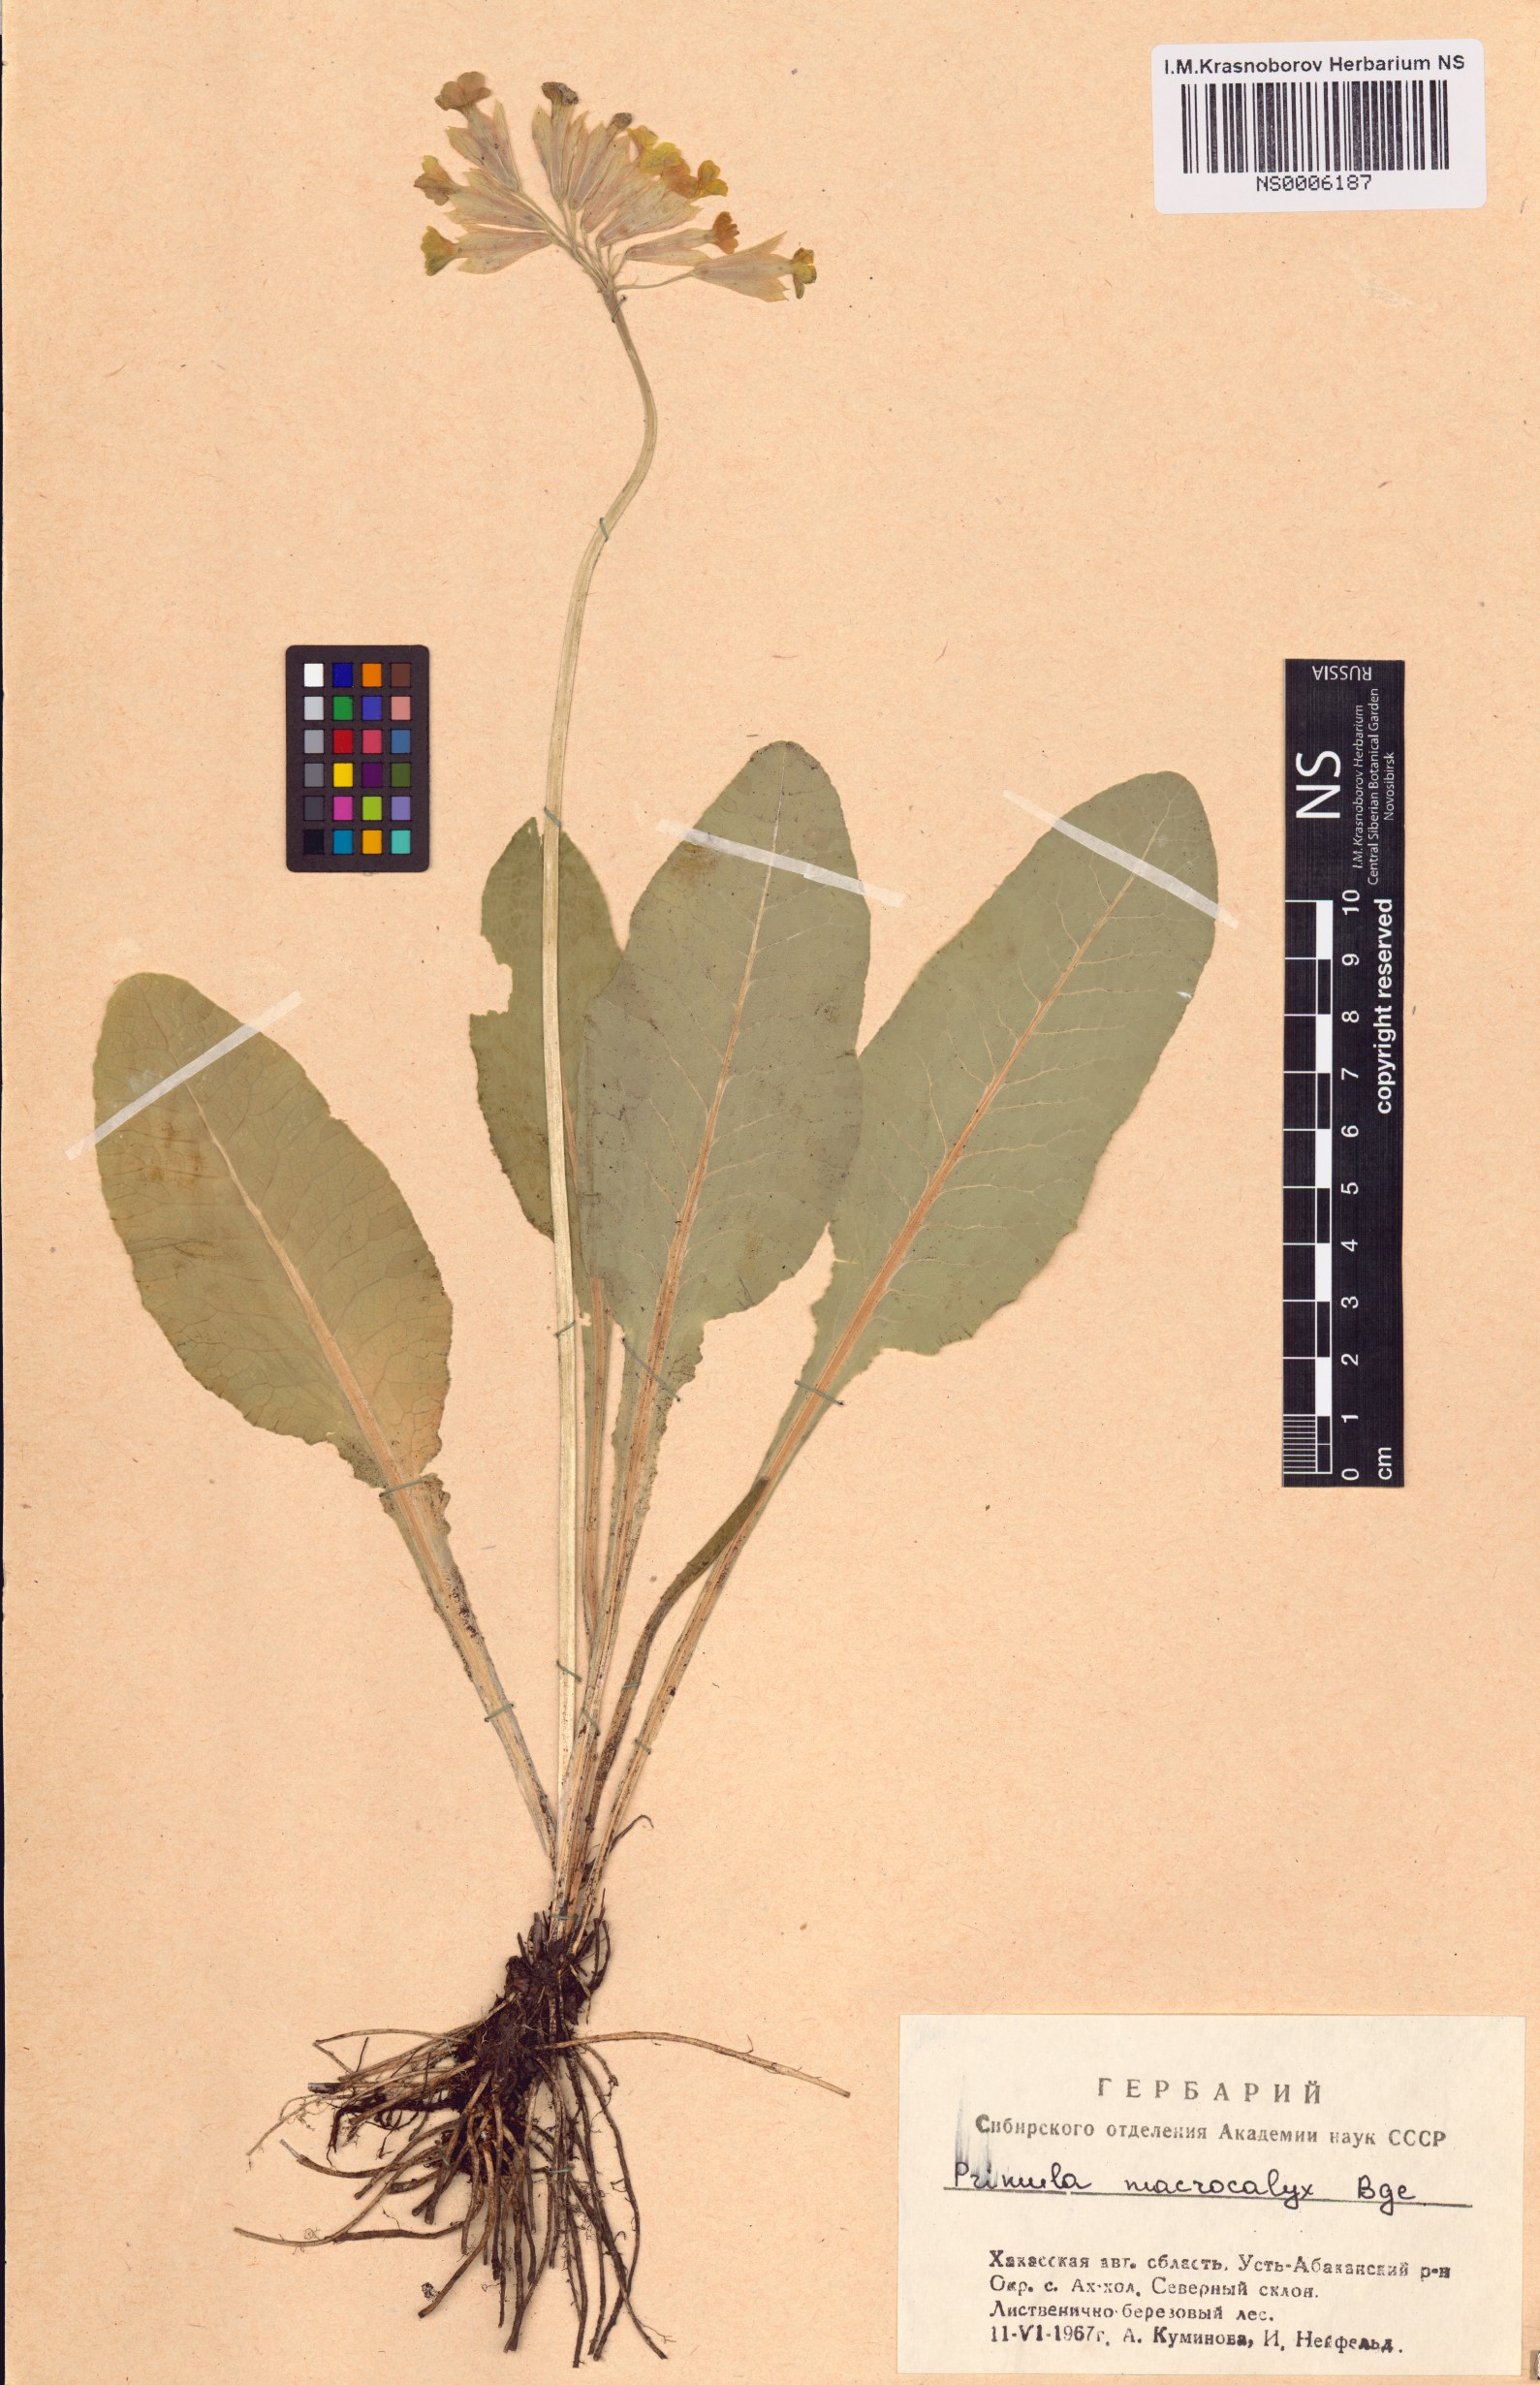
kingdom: Plantae
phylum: Tracheophyta
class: Magnoliopsida
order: Ericales
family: Primulaceae
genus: Primula
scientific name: Primula veris
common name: Cowslip
